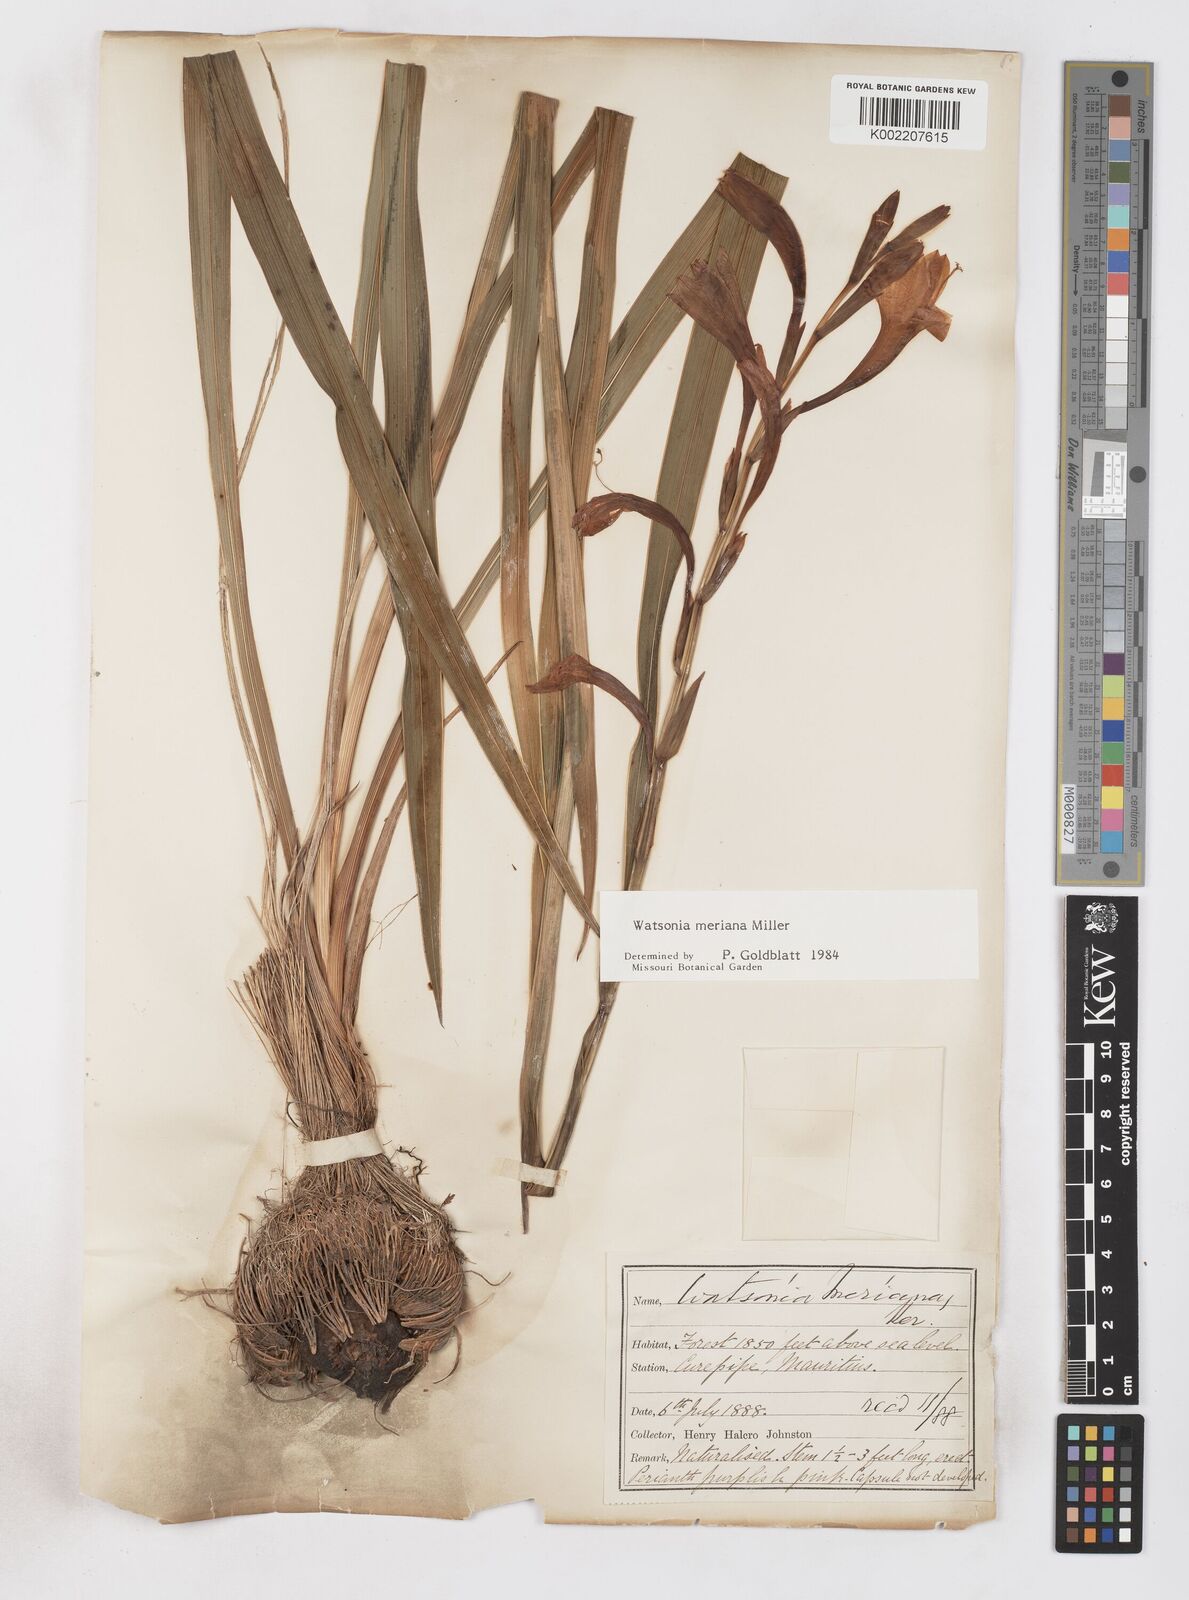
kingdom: Plantae
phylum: Tracheophyta
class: Liliopsida
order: Asparagales
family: Iridaceae
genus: Watsonia
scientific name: Watsonia meriana
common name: Bulbil bugle-lily
